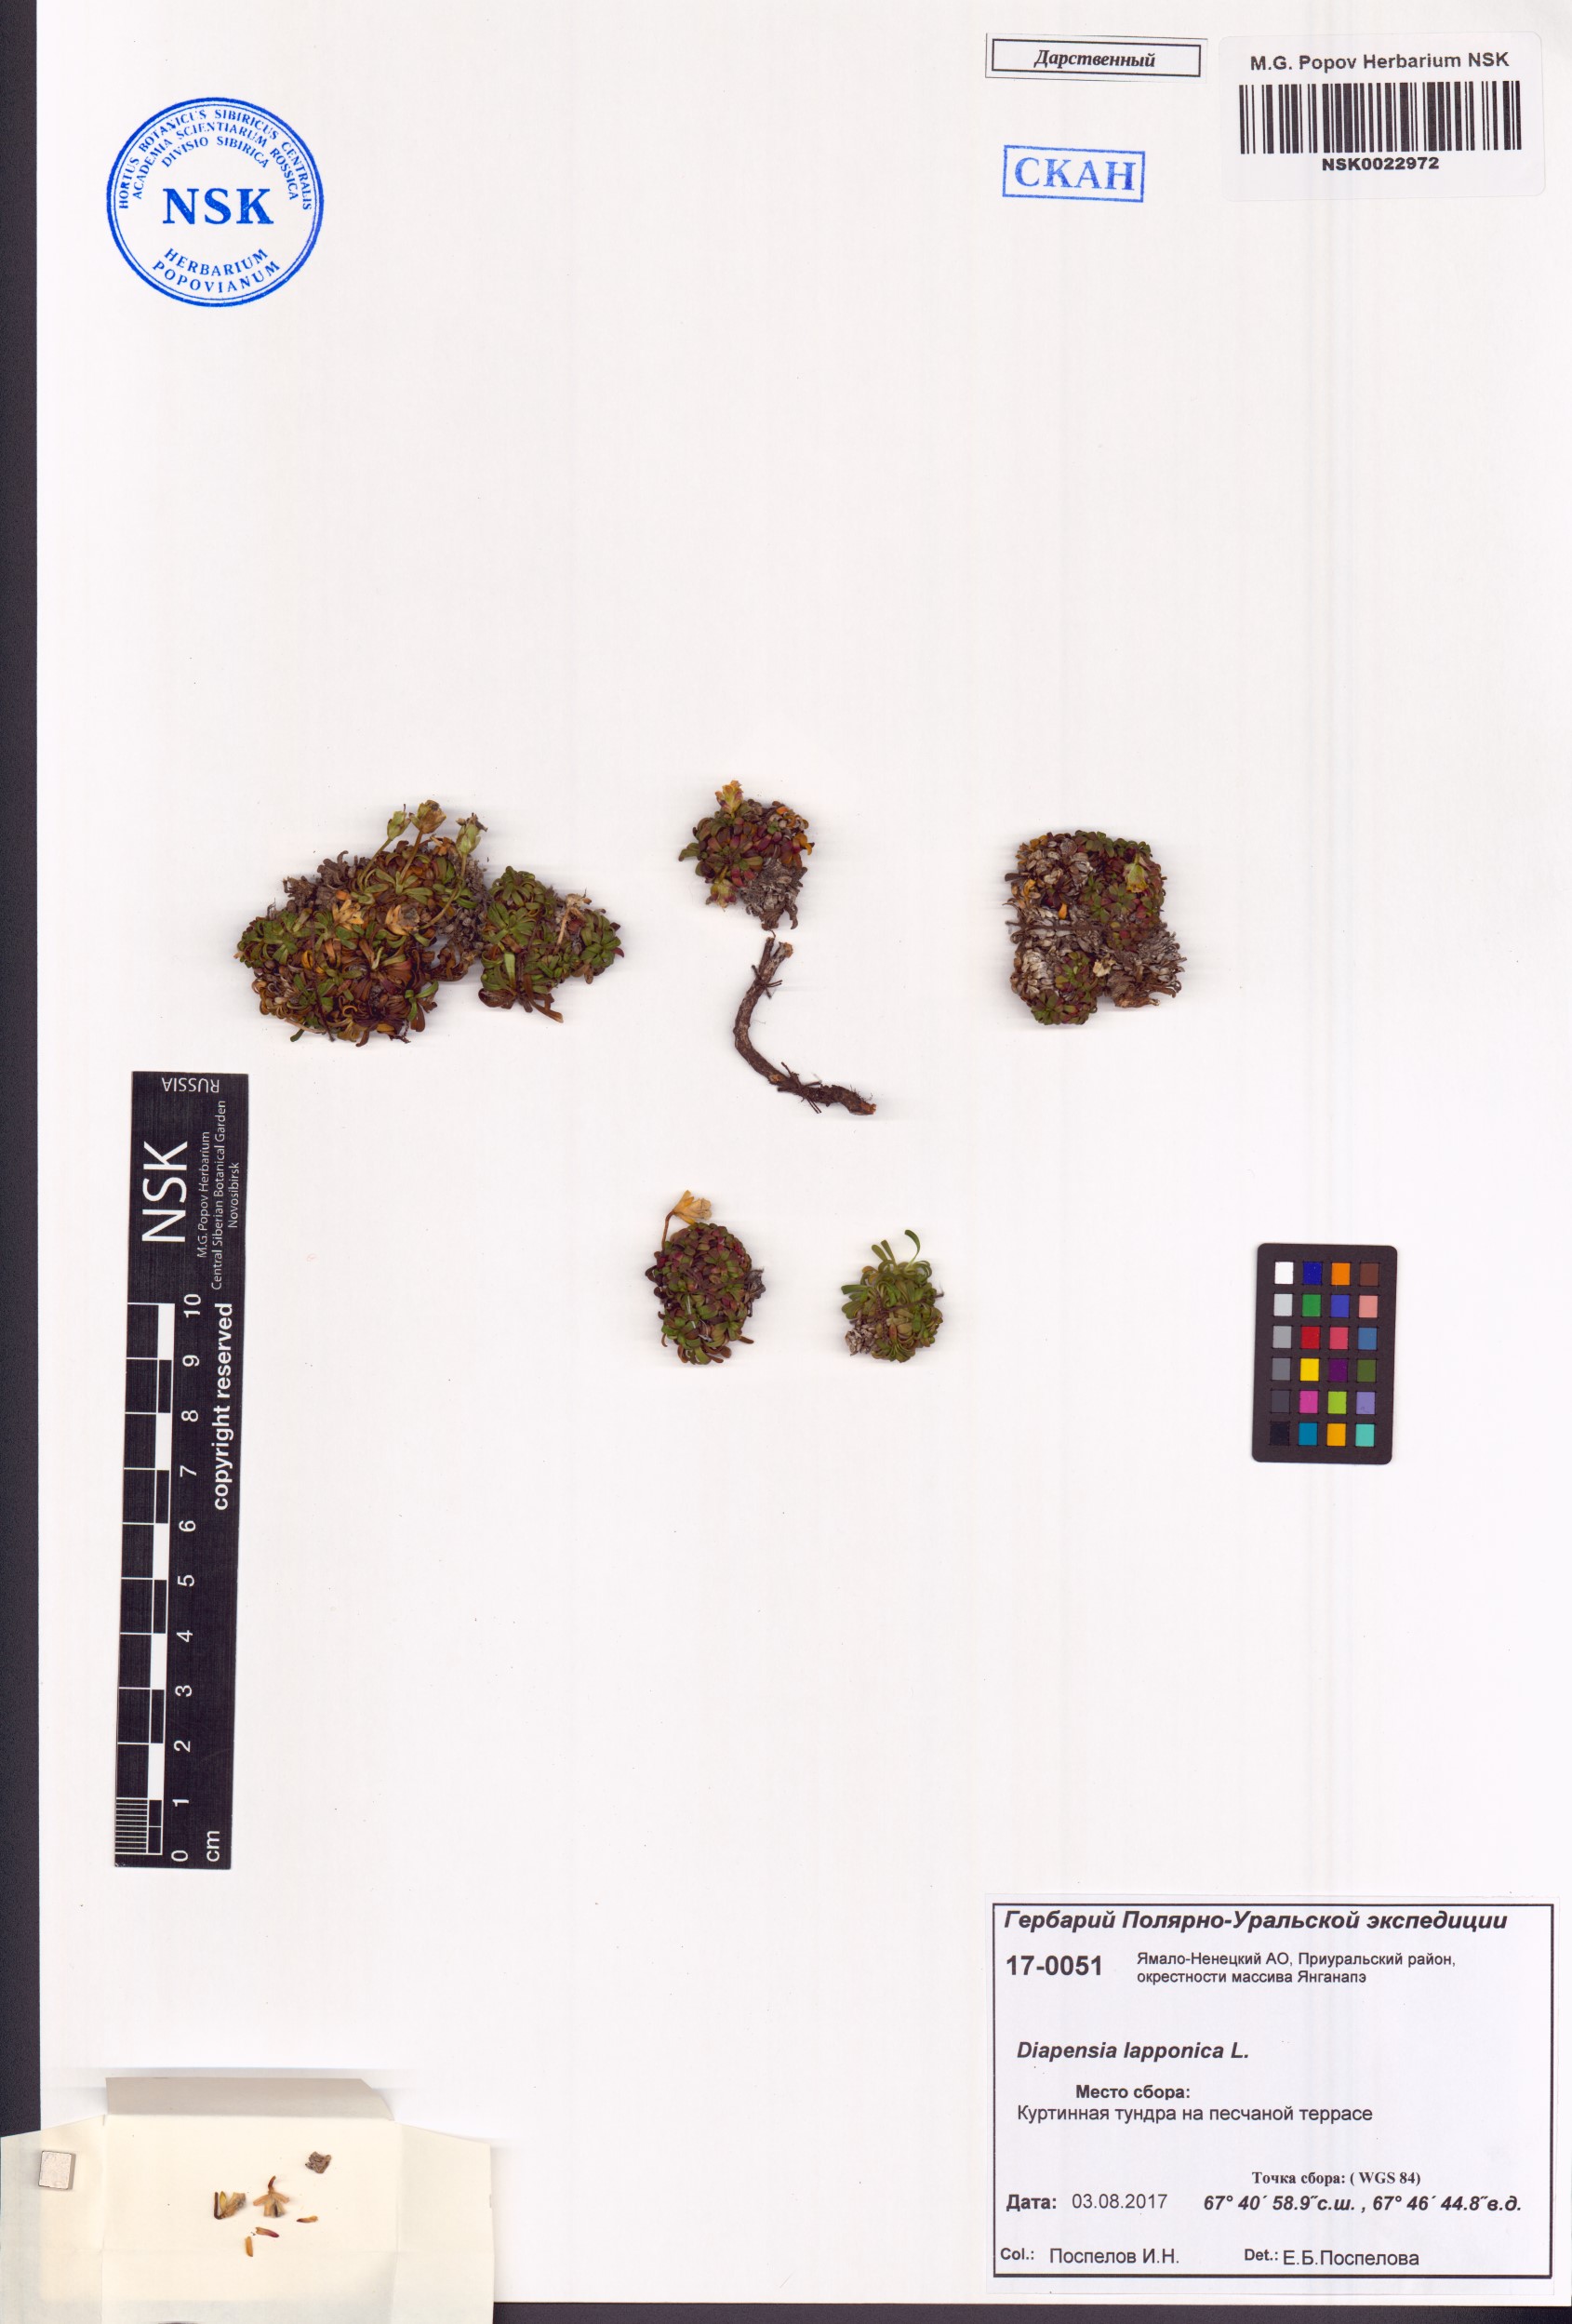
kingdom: Plantae
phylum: Tracheophyta
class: Magnoliopsida
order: Ericales
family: Diapensiaceae
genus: Diapensia
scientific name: Diapensia lapponica
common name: Diapensia
